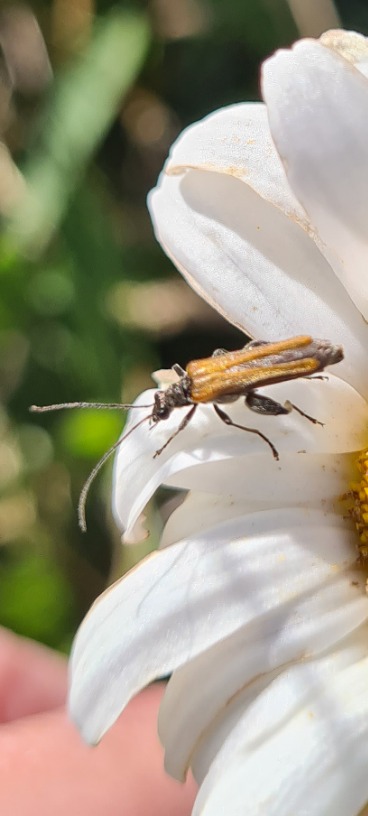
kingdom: Animalia
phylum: Arthropoda
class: Insecta
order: Coleoptera
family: Oedemeridae
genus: Oedemera
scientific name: Oedemera nobilis
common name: Tyklårssolbille
